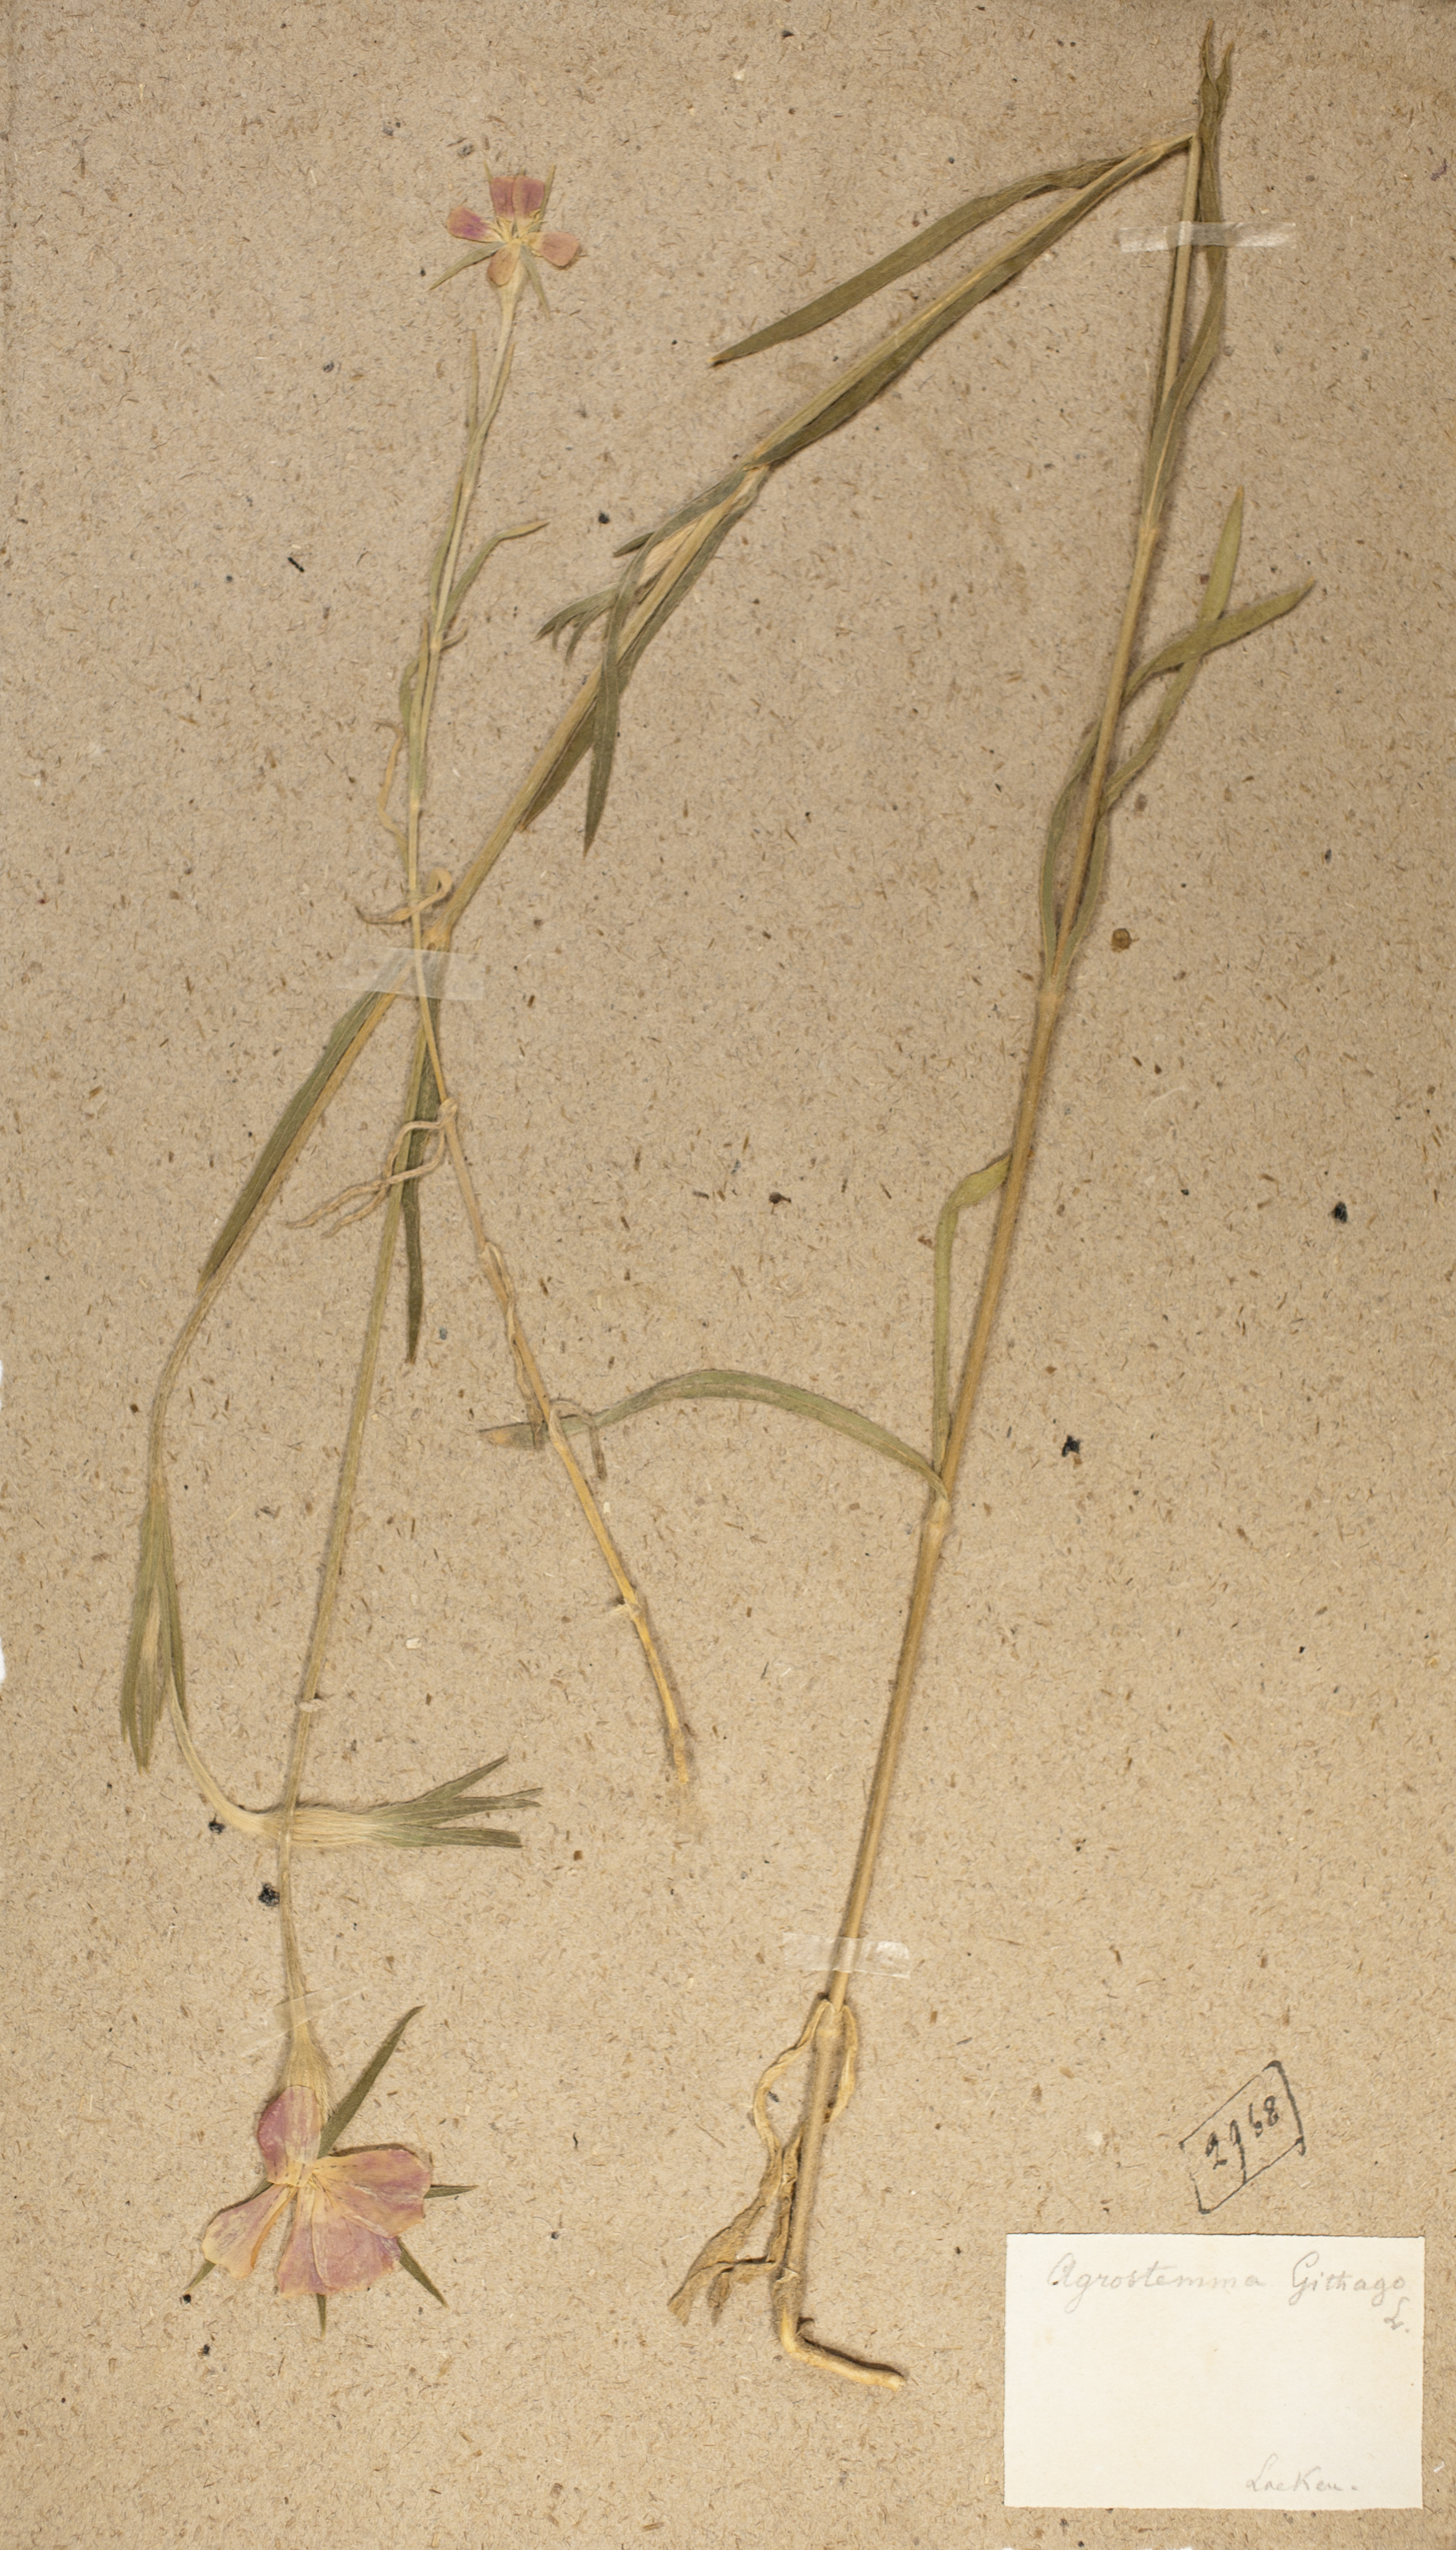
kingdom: Plantae
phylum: Tracheophyta
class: Magnoliopsida
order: Caryophyllales
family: Caryophyllaceae
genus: Agrostemma
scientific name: Agrostemma githago
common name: Common corncockle
